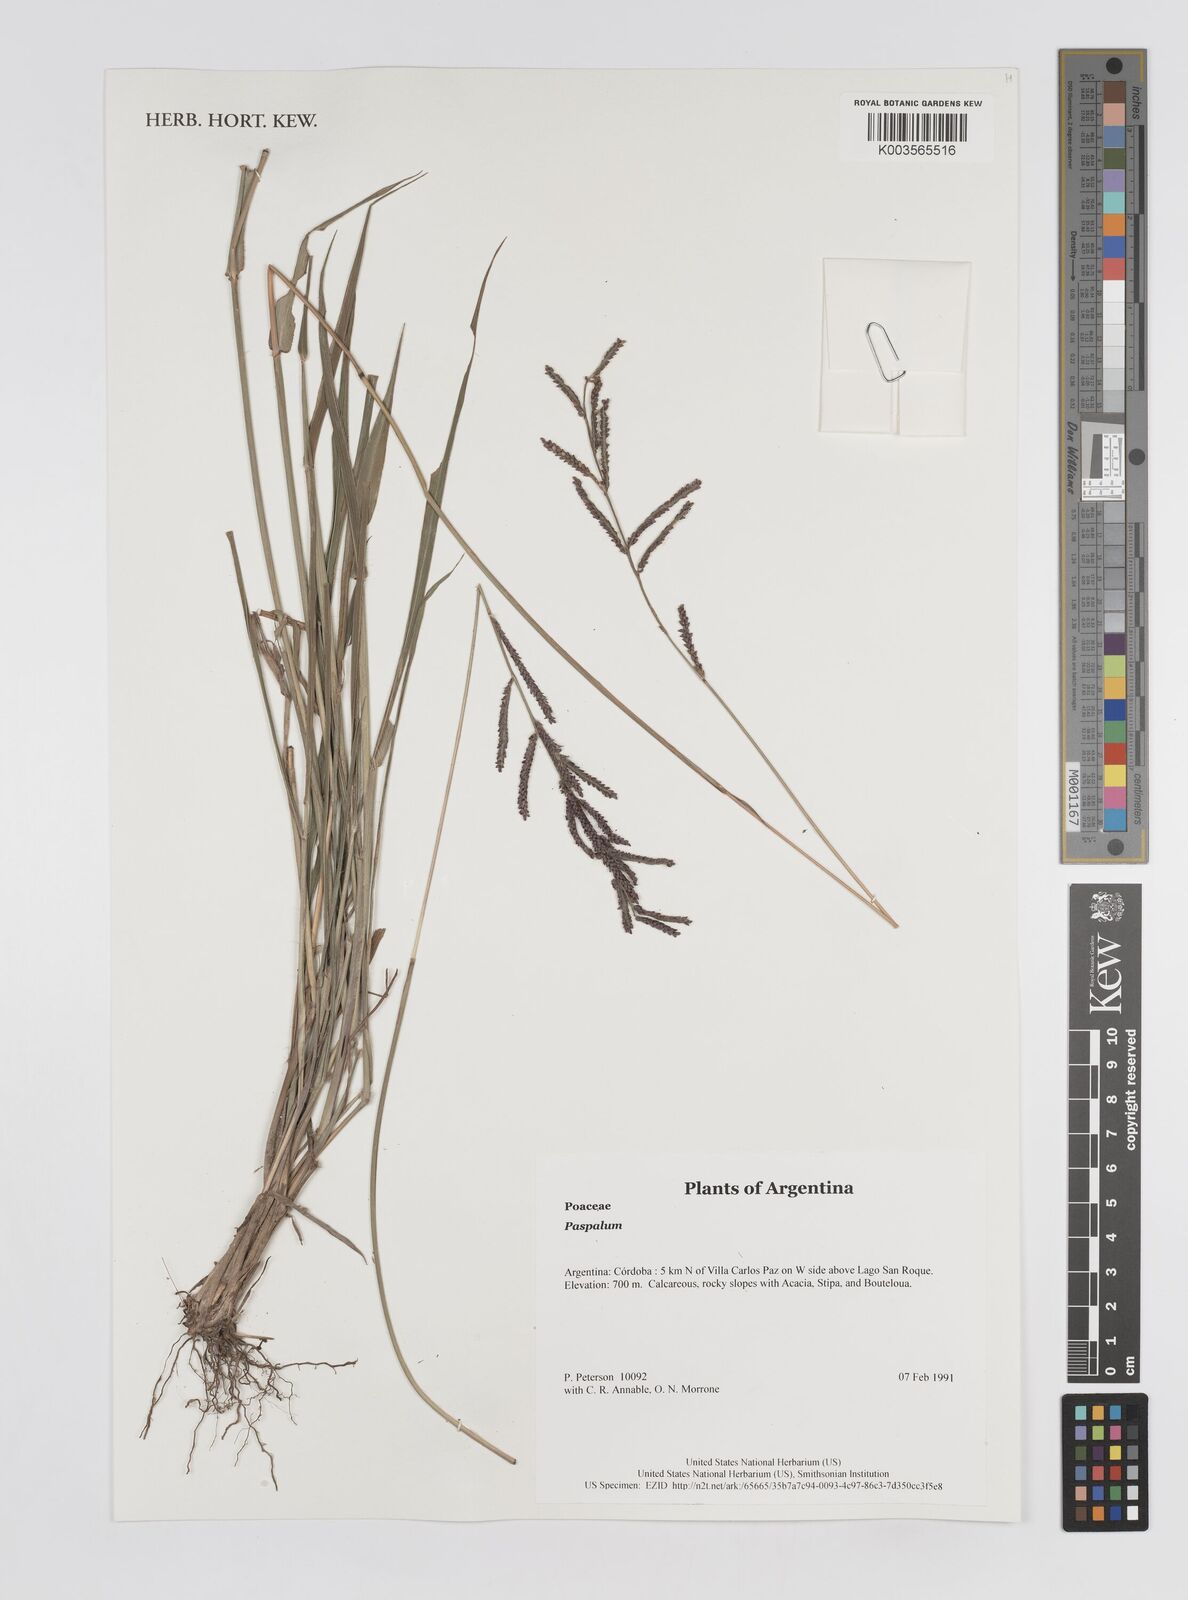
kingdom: Plantae
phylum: Tracheophyta
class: Liliopsida
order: Poales
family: Poaceae
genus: Paspalum
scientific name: Paspalum
